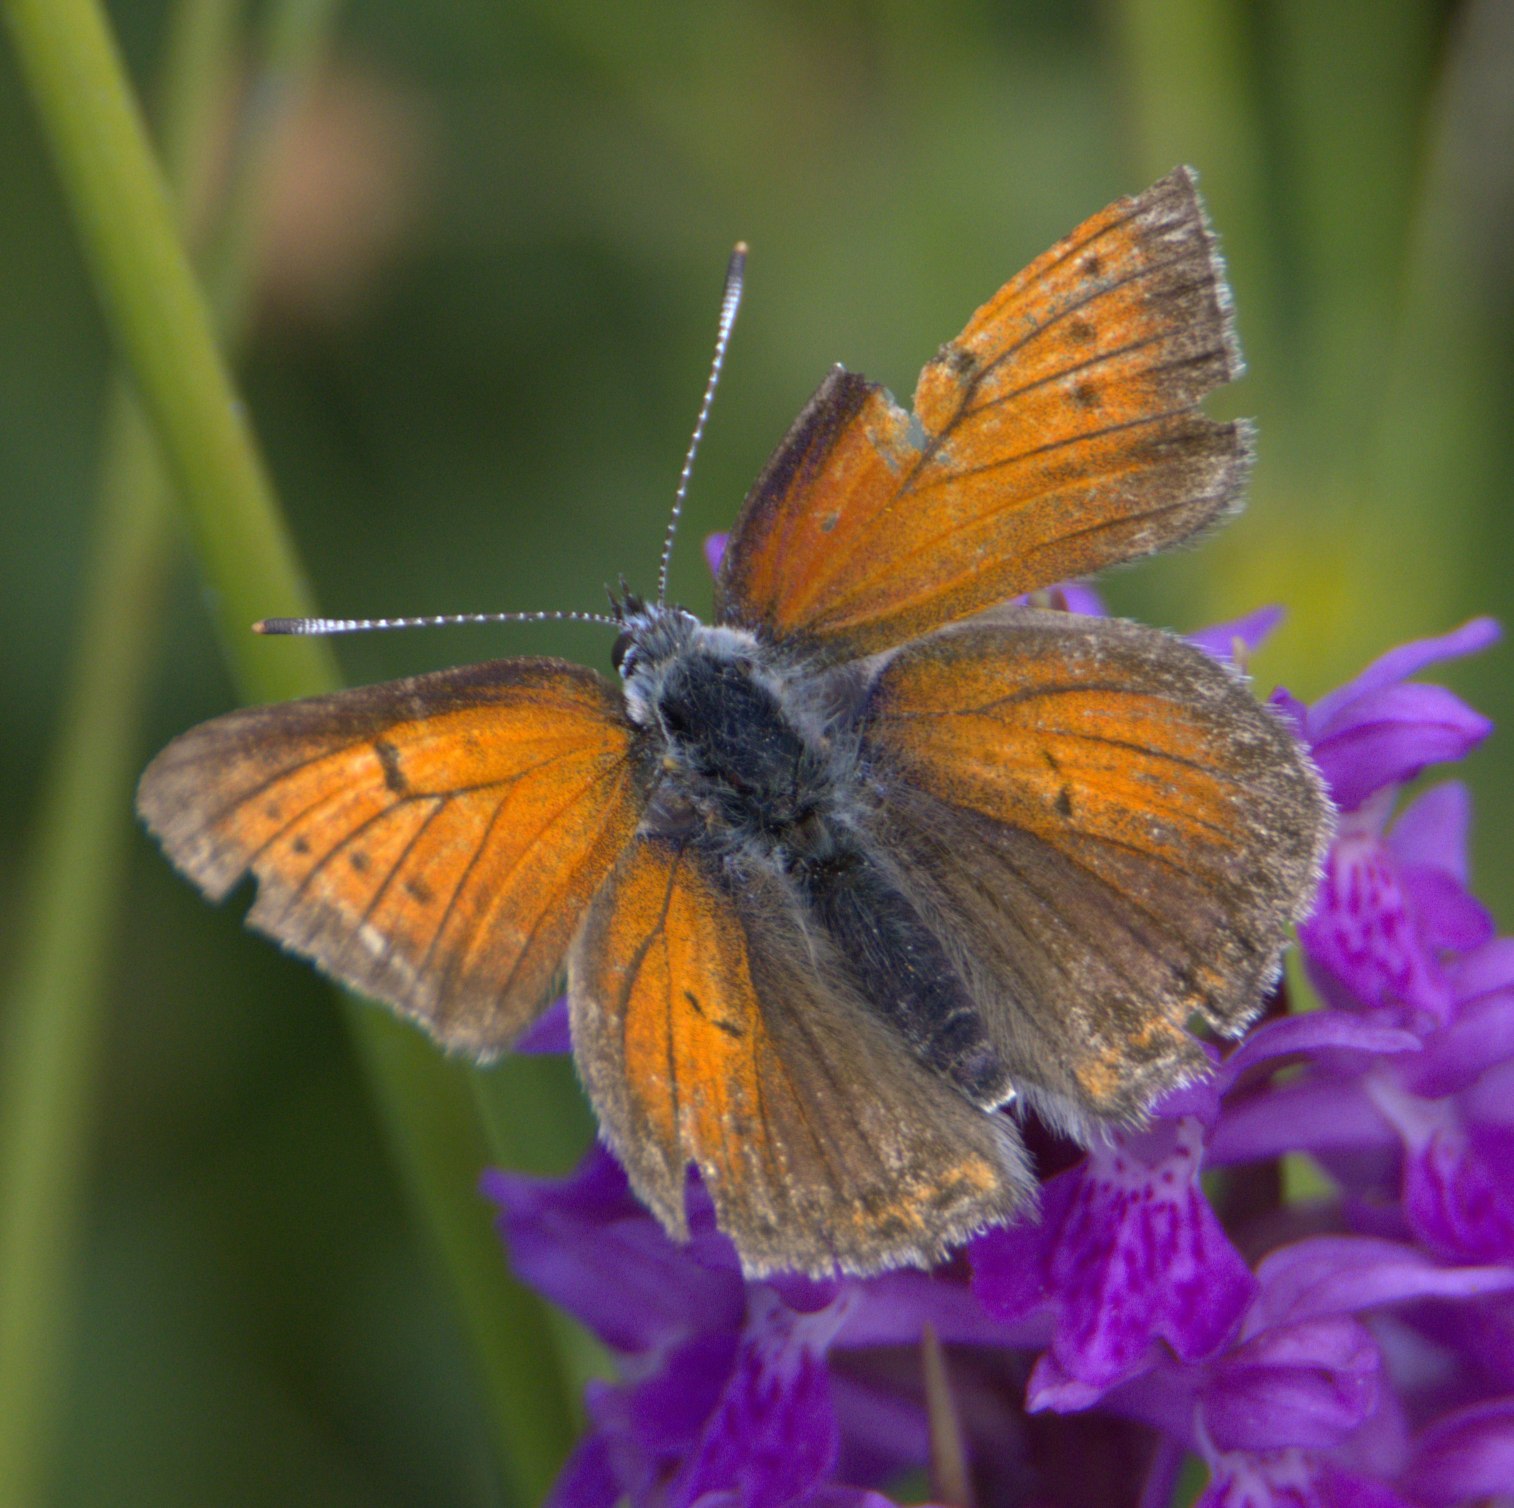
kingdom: Animalia
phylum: Arthropoda
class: Insecta
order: Lepidoptera
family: Lycaenidae
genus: Palaeochrysophanus
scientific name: Palaeochrysophanus hippothoe
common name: Violetrandet ildfugl
